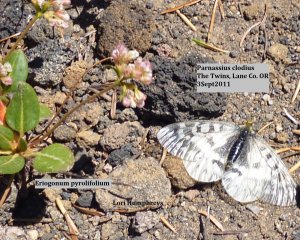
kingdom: Animalia
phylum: Arthropoda
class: Insecta
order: Lepidoptera
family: Papilionidae
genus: Parnassius
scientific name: Parnassius clodius
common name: Clodius Parnassian
